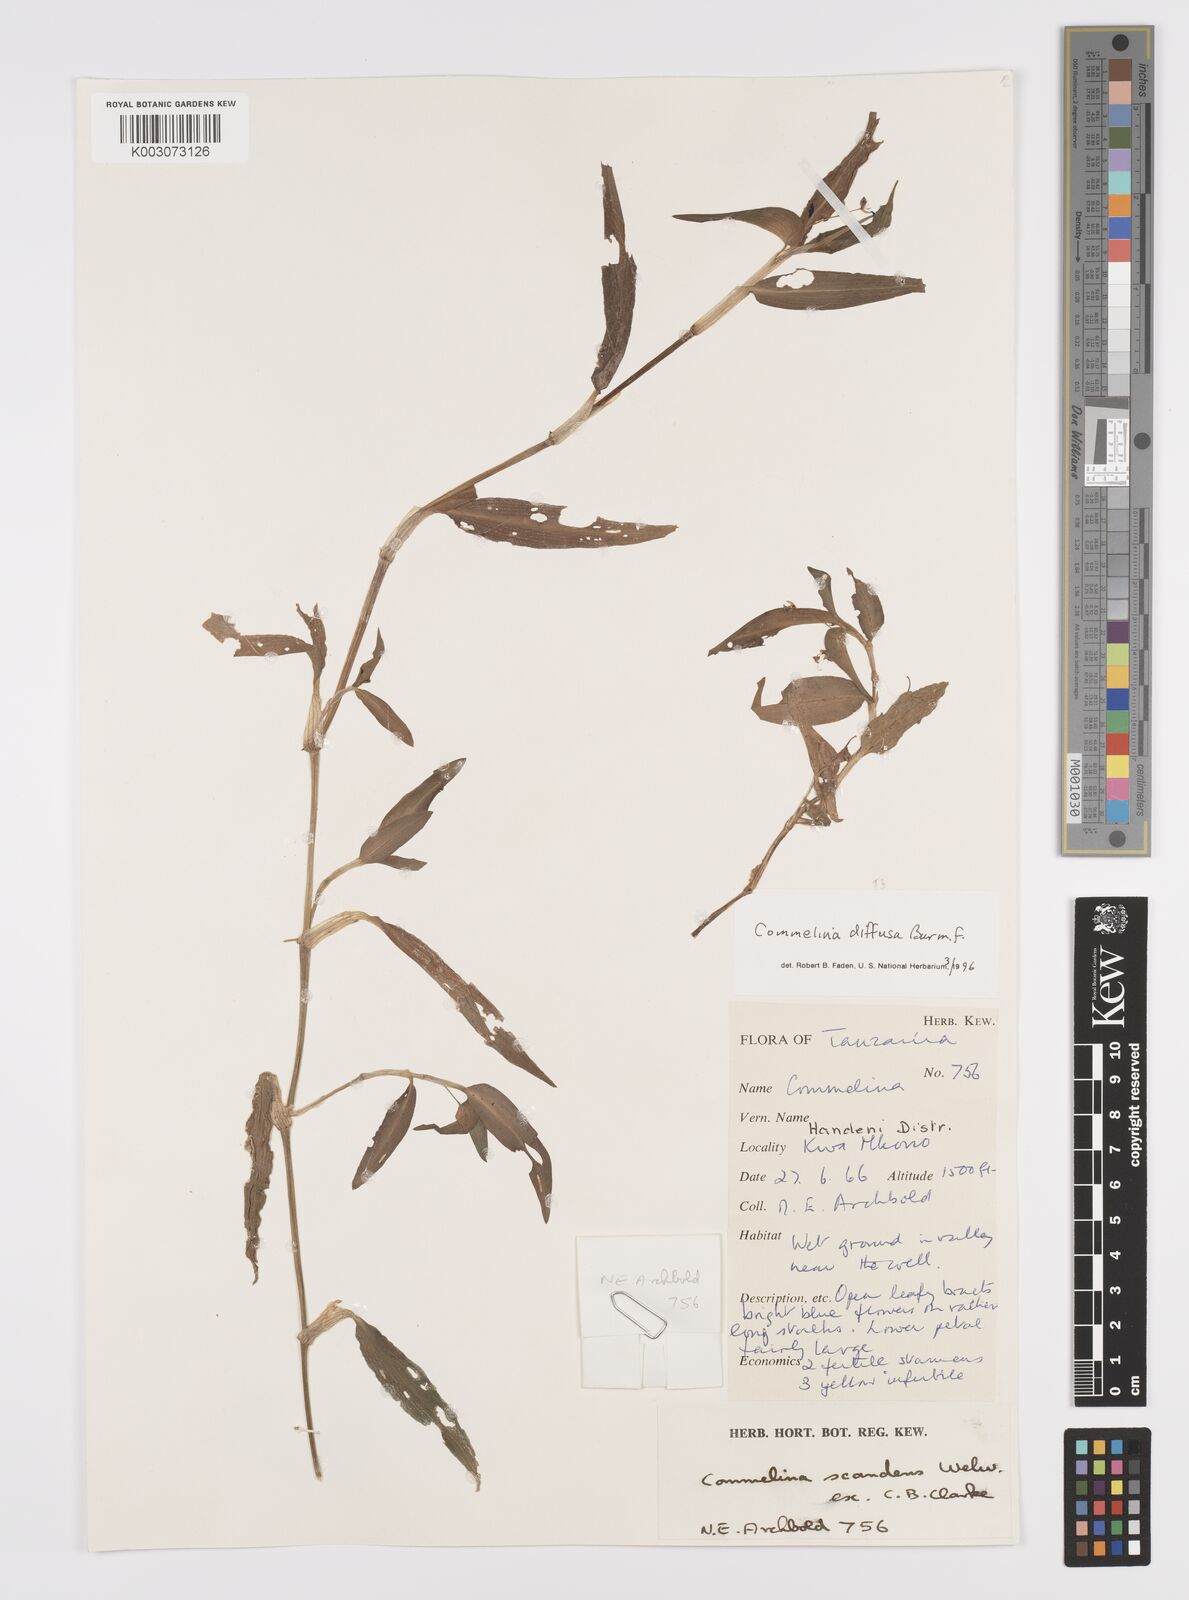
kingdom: Plantae
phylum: Tracheophyta
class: Liliopsida
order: Commelinales
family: Commelinaceae
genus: Commelina
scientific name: Commelina diffusa
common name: Climbing dayflower
